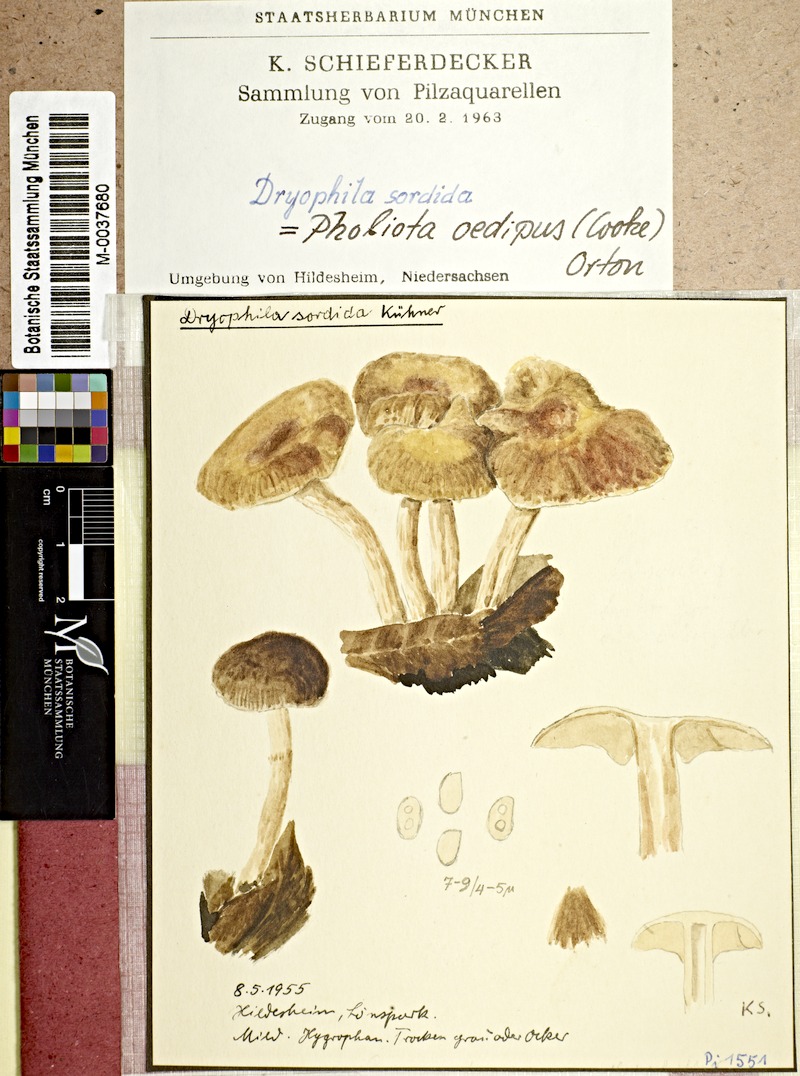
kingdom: Fungi
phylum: Basidiomycota
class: Agaricomycetes
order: Agaricales
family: Strophariaceae
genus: Meottomyces
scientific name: Meottomyces dissimulans
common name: Winter brownie
